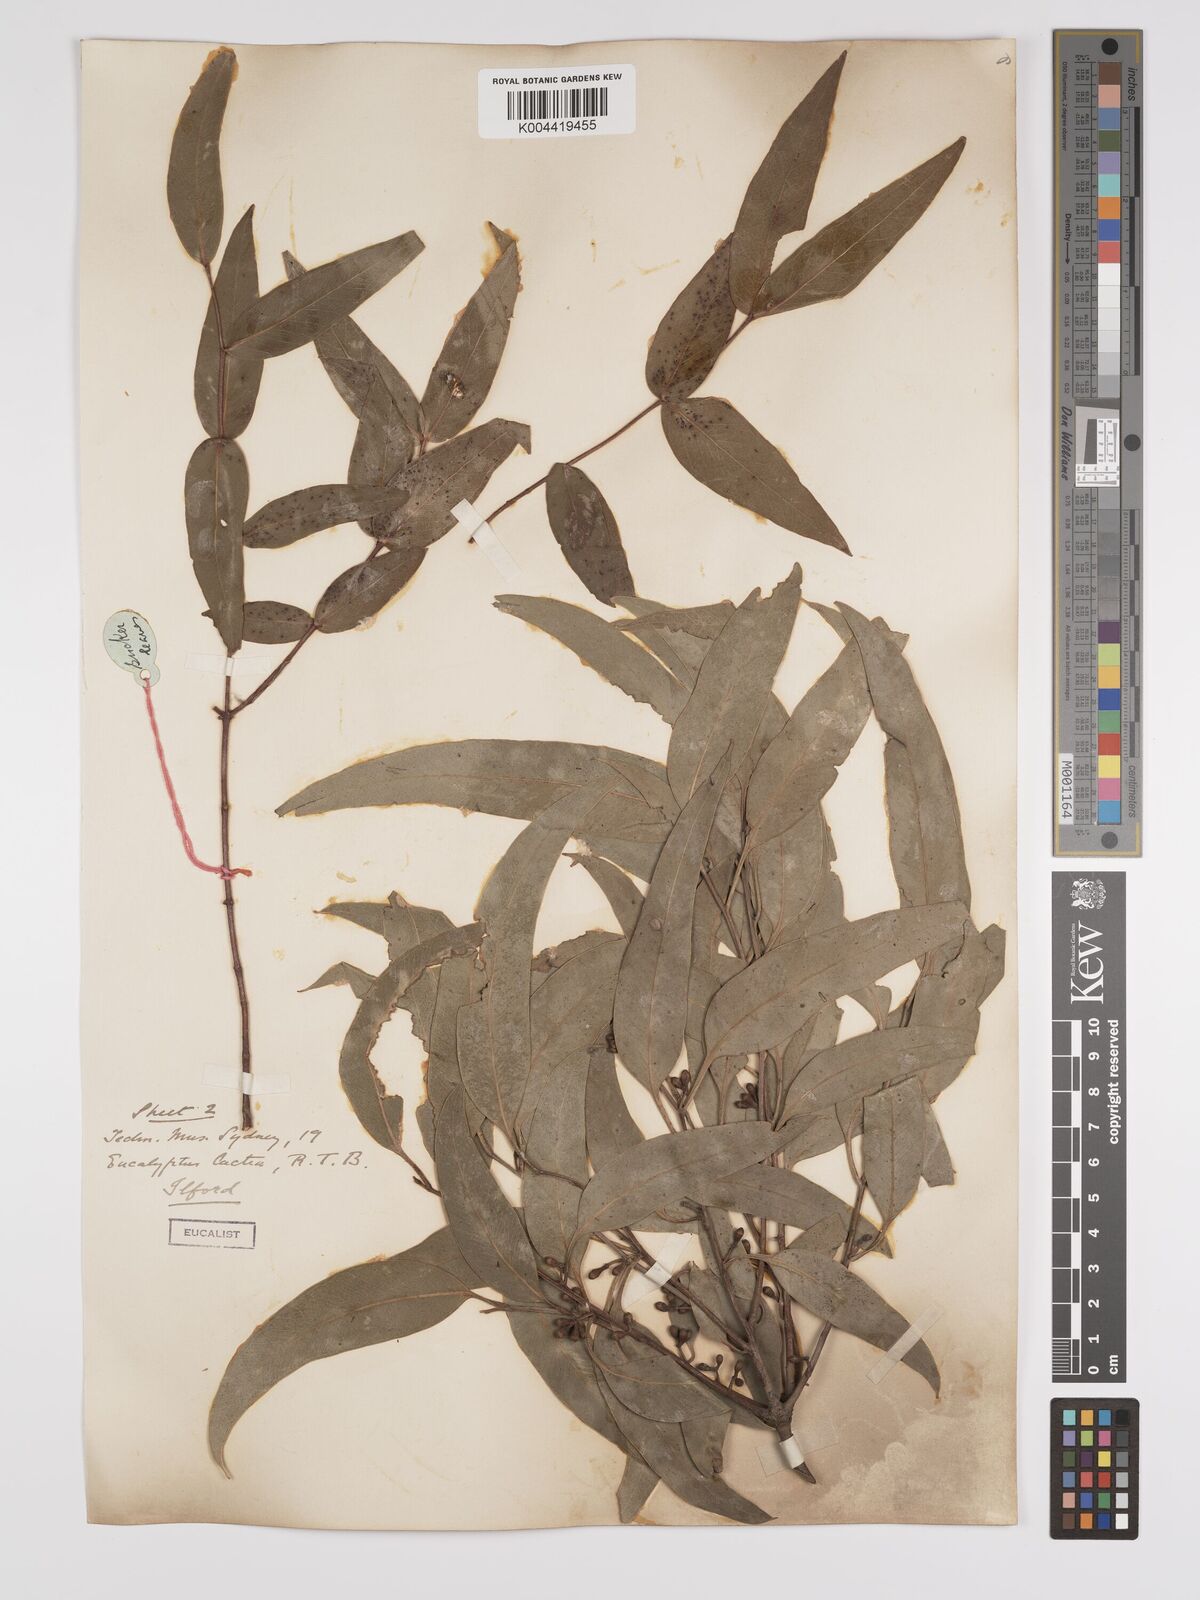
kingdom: Plantae
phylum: Tracheophyta
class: Magnoliopsida
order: Myrtales
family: Myrtaceae
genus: Eucalyptus
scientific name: Eucalyptus mannifera
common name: Manna gum
